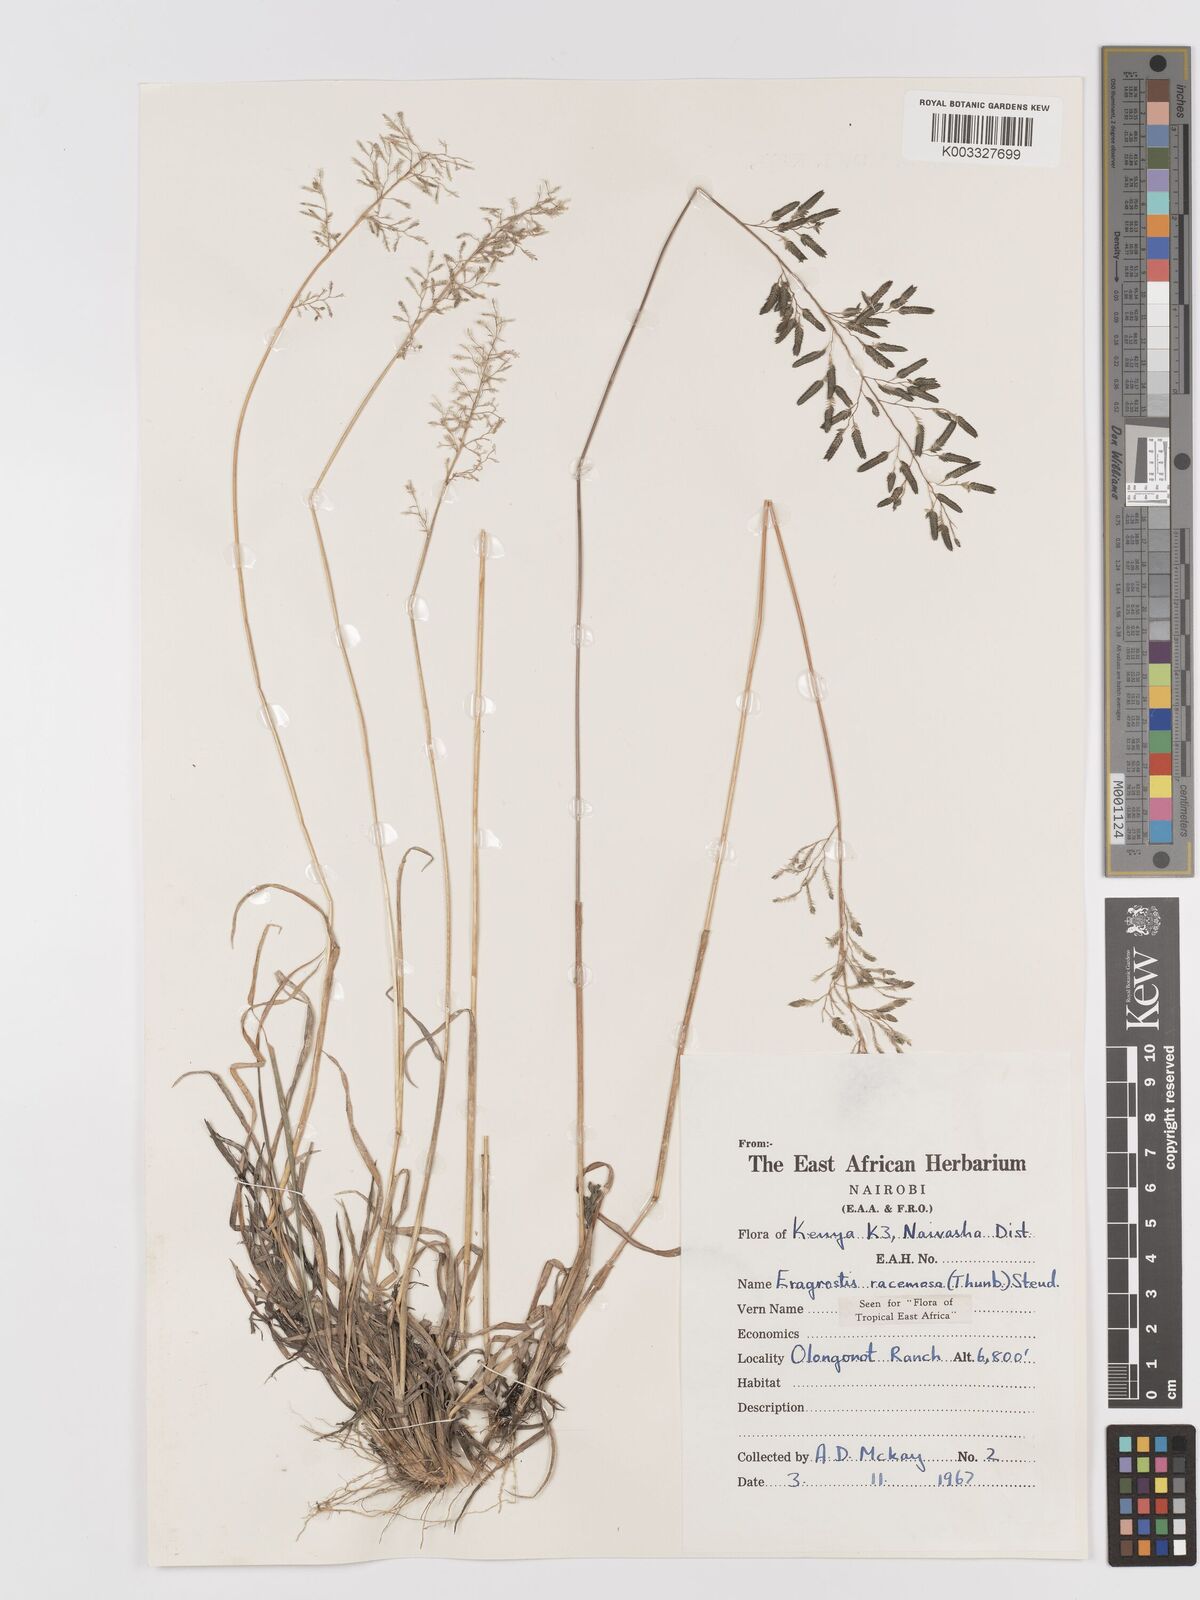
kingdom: Plantae
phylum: Tracheophyta
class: Liliopsida
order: Poales
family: Poaceae
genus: Eragrostis
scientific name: Eragrostis racemosa
